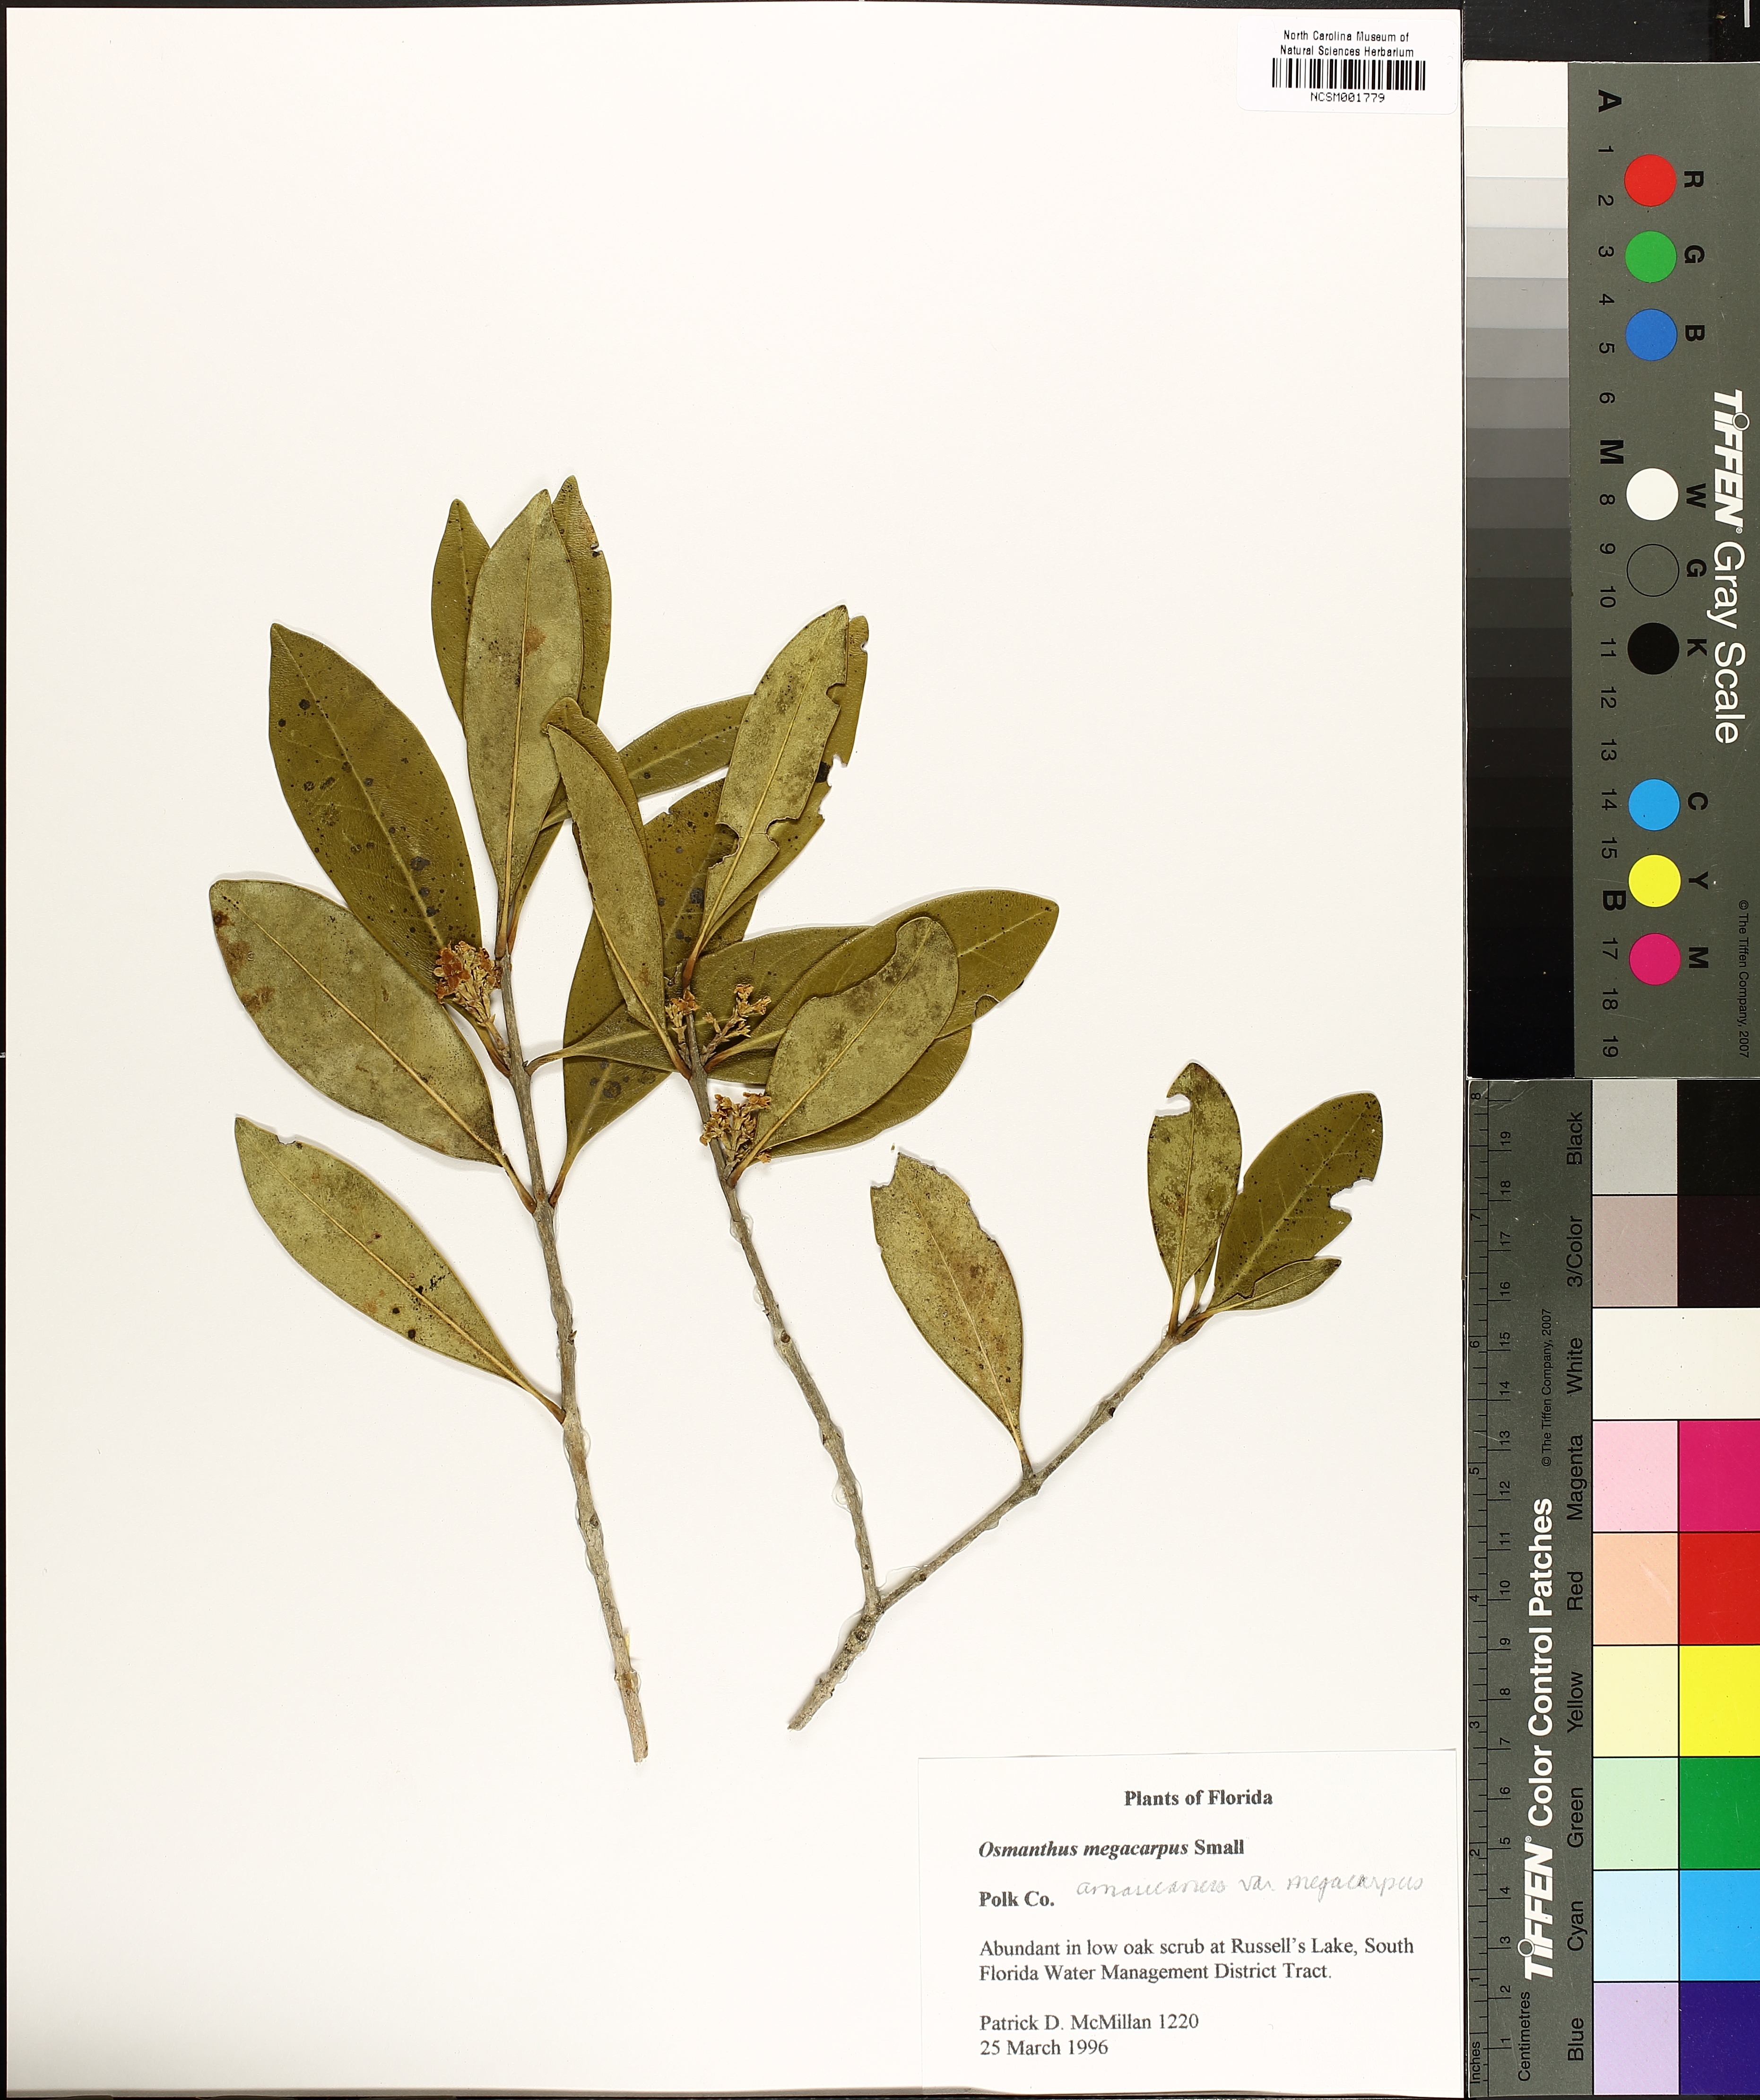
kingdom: Plantae
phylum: Tracheophyta
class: Magnoliopsida
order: Lamiales
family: Oleaceae
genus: Cartrema
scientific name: Cartrema floridana
